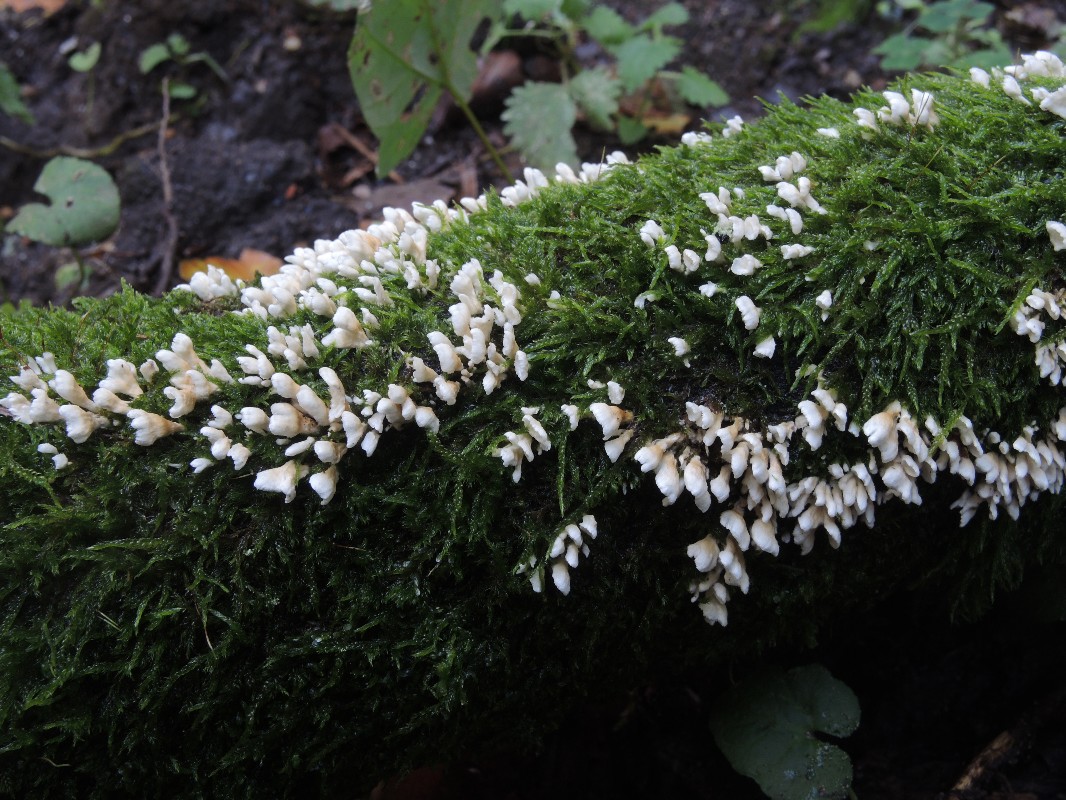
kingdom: Fungi
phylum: Basidiomycota
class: Agaricomycetes
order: Amylocorticiales
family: Amylocorticiaceae
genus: Plicaturopsis
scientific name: Plicaturopsis crispa
